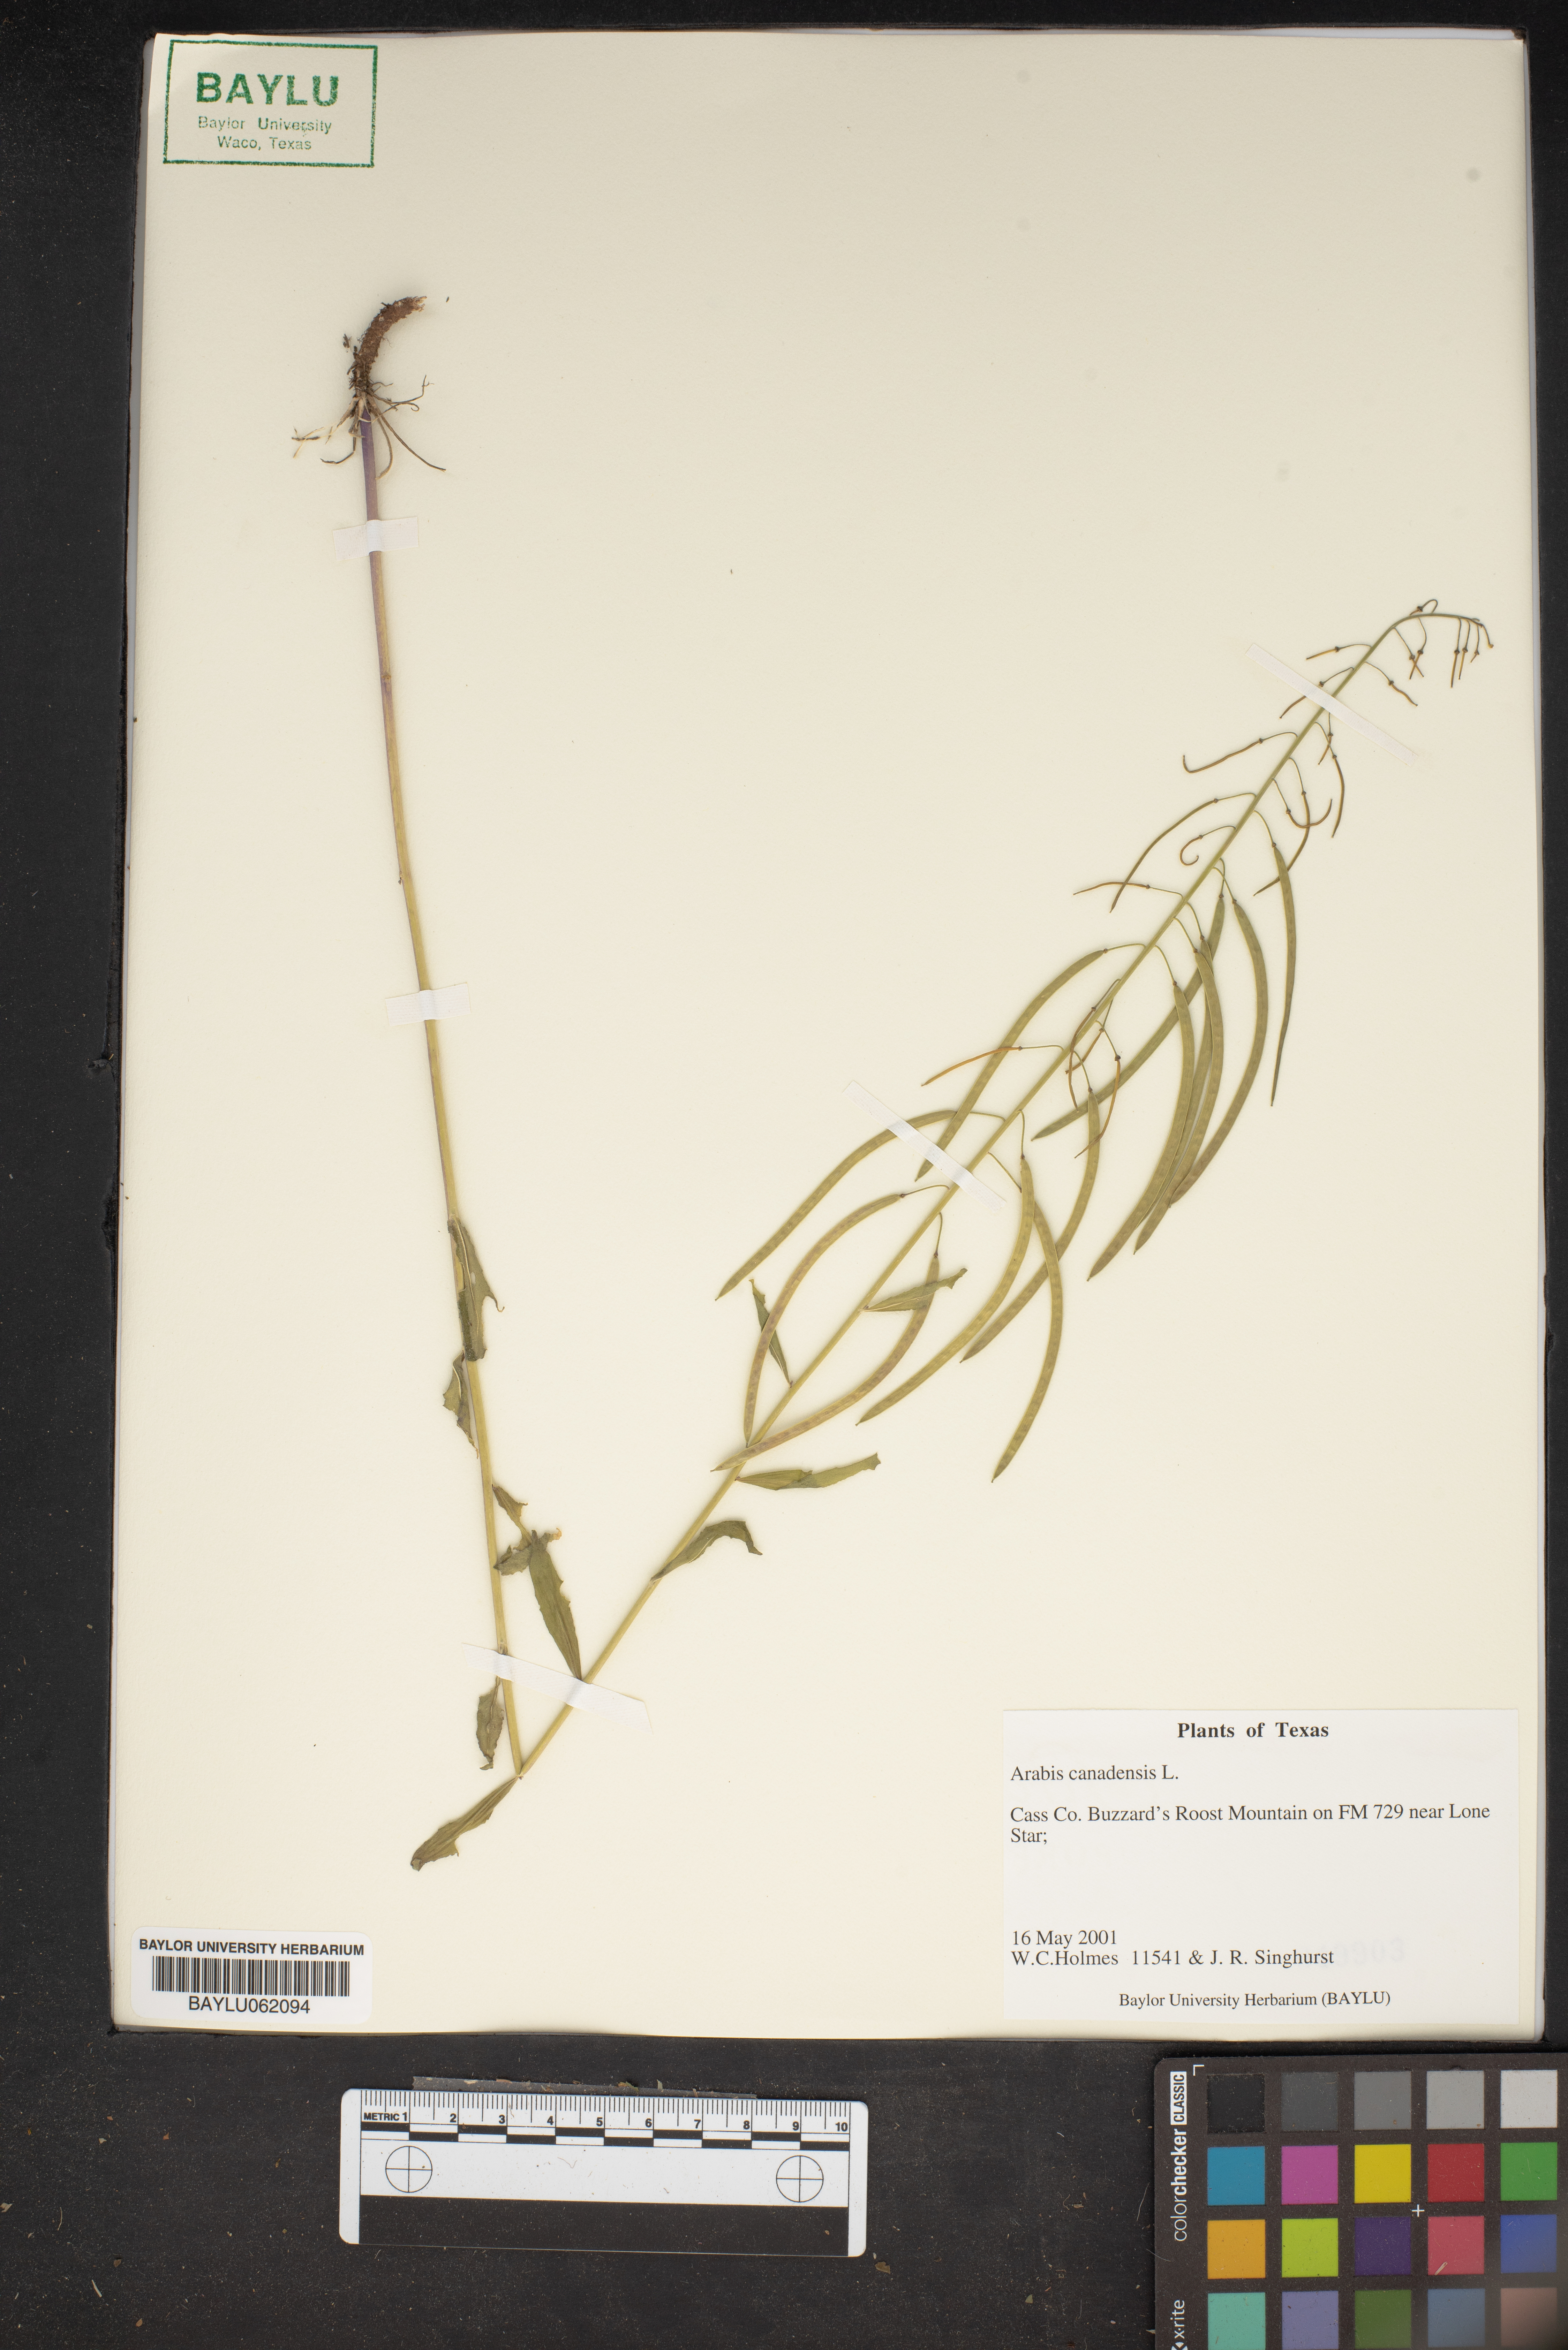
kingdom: Plantae
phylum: Tracheophyta
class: Magnoliopsida
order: Brassicales
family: Brassicaceae
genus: Borodinia
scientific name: Borodinia canadensis
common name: Sicklepod
